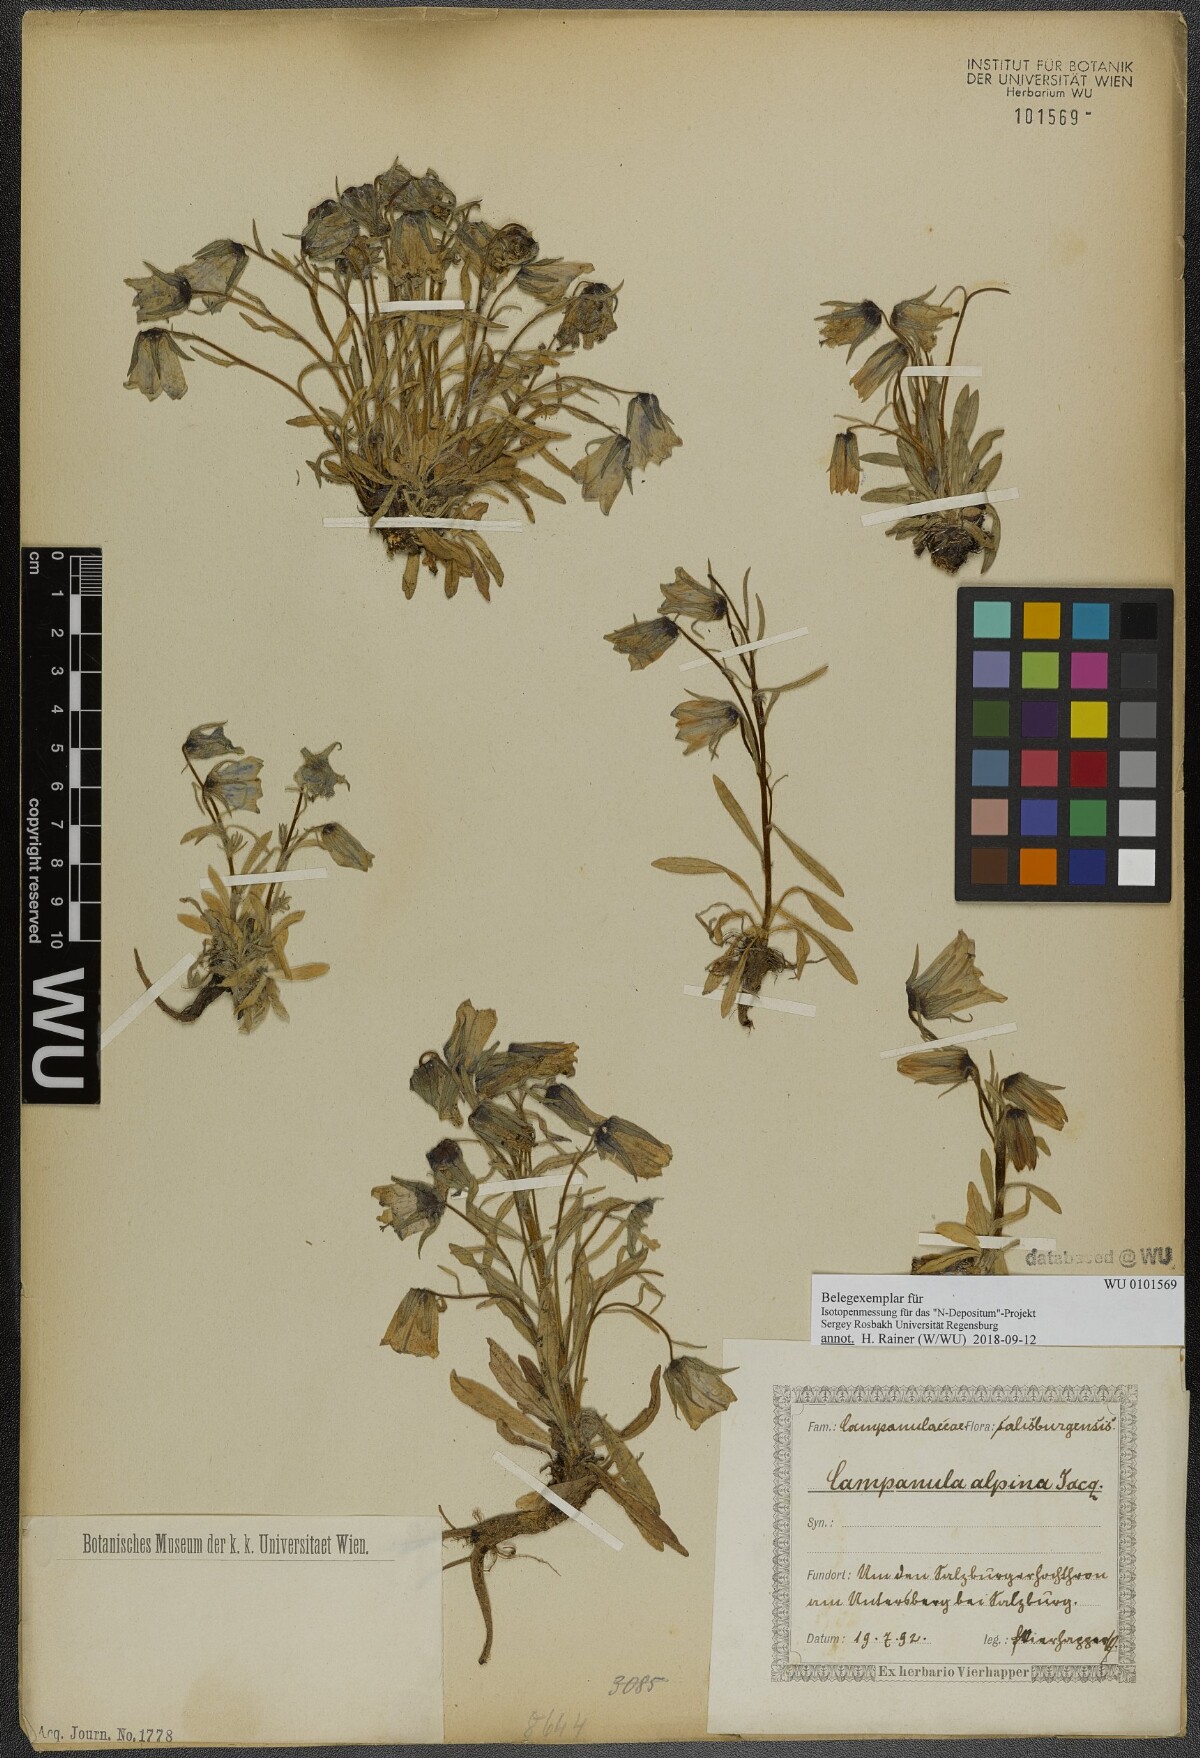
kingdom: Plantae
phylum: Tracheophyta
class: Magnoliopsida
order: Asterales
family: Campanulaceae
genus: Campanula
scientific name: Campanula alpina
